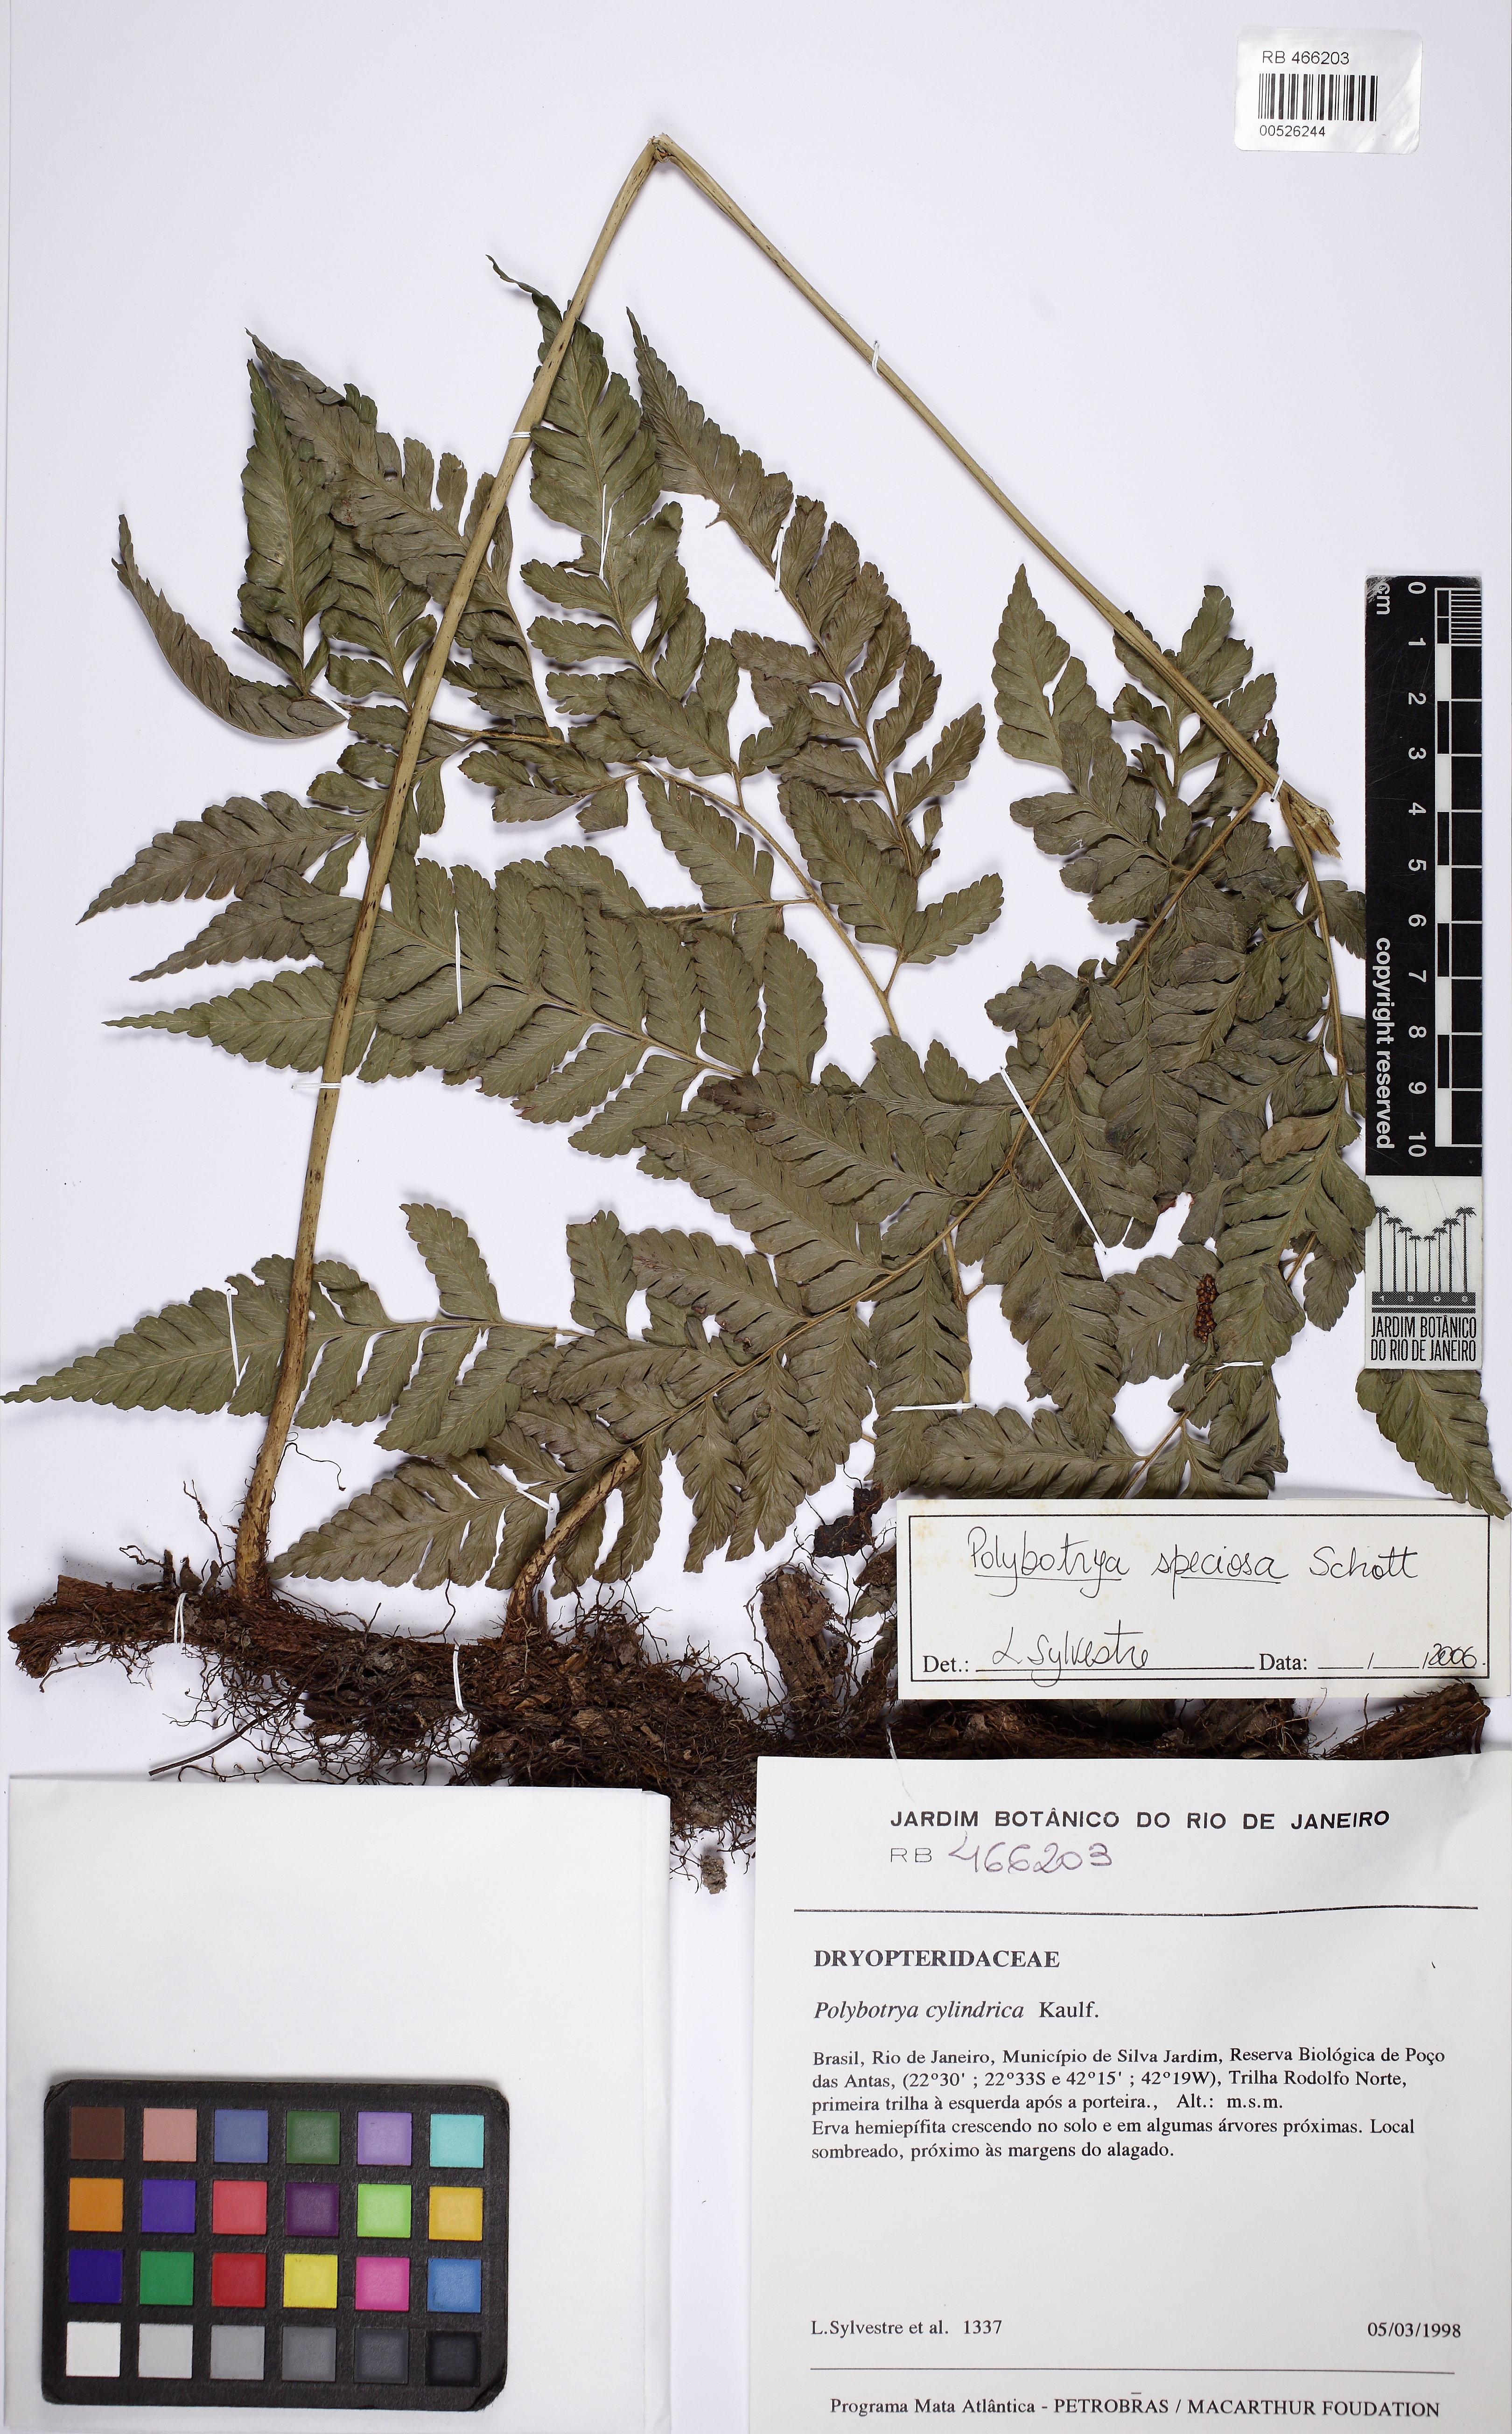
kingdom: Plantae
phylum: Tracheophyta
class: Polypodiopsida
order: Polypodiales
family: Dryopteridaceae
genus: Polybotrya
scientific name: Polybotrya cylindrica
